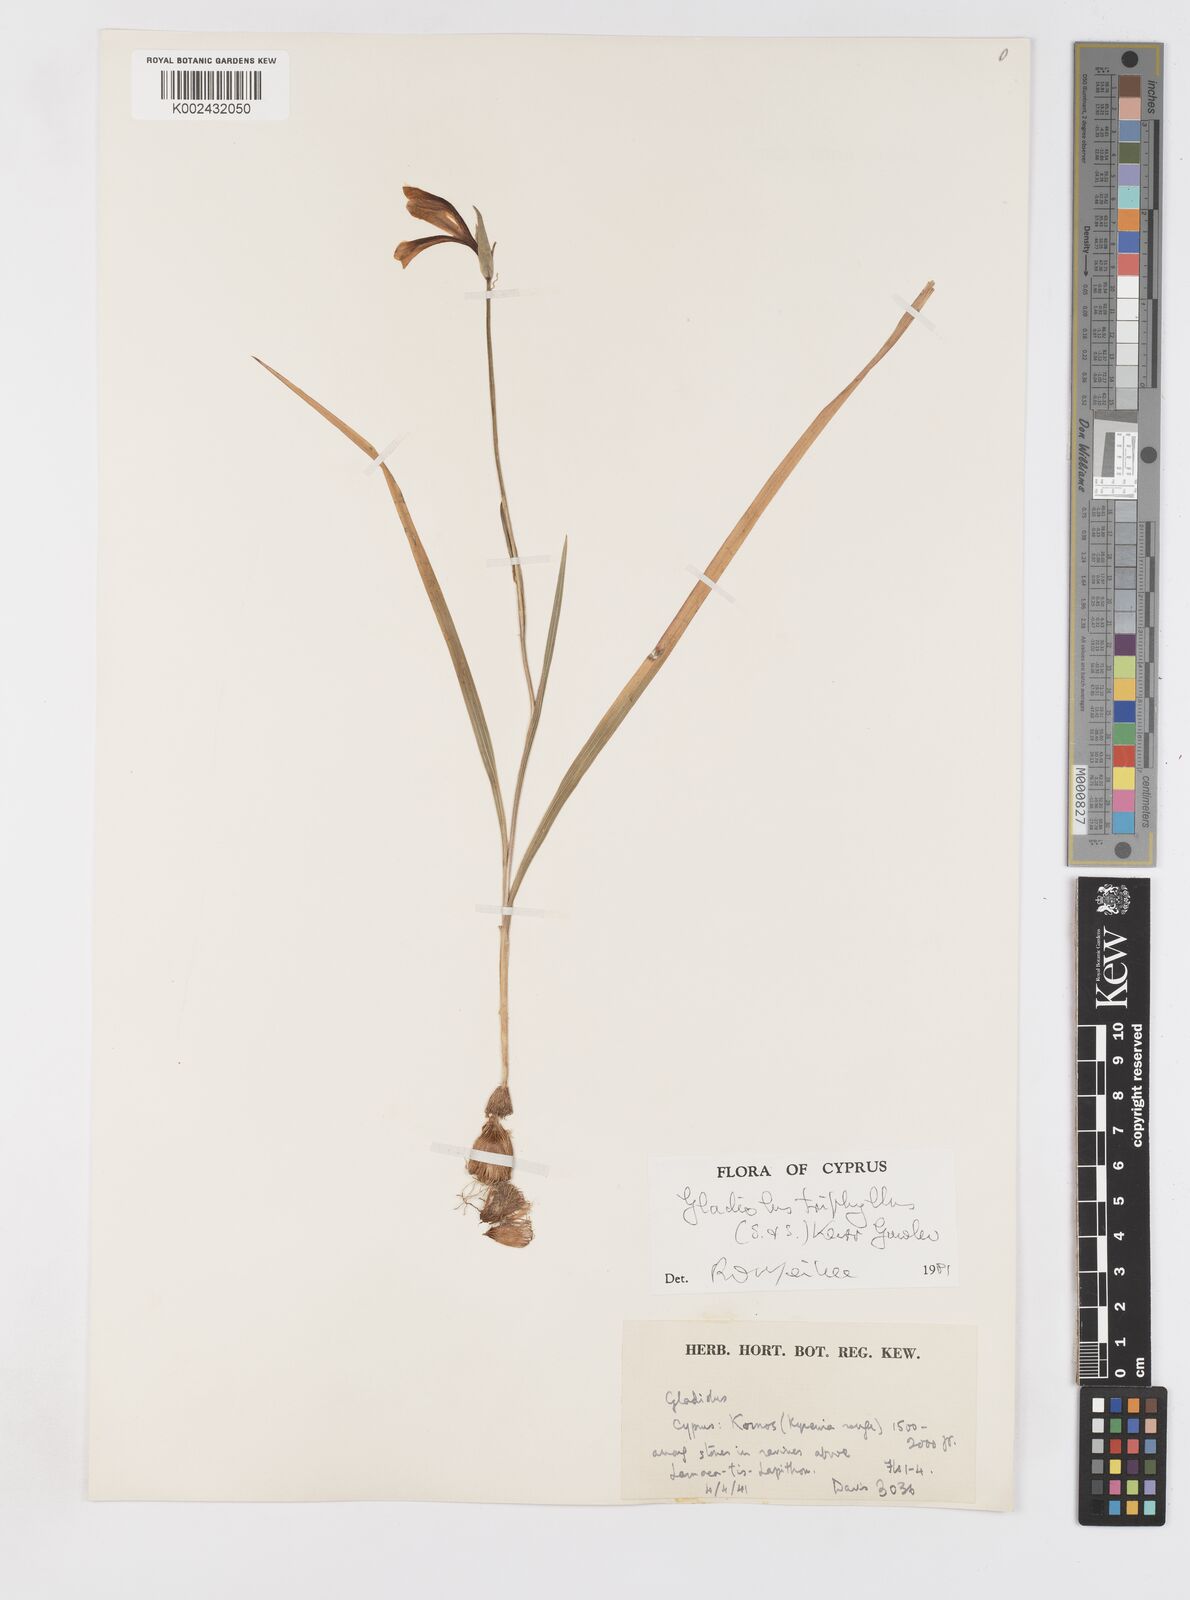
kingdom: Plantae
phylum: Tracheophyta
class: Liliopsida
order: Asparagales
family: Iridaceae
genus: Gladiolus
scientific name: Gladiolus triphyllus
